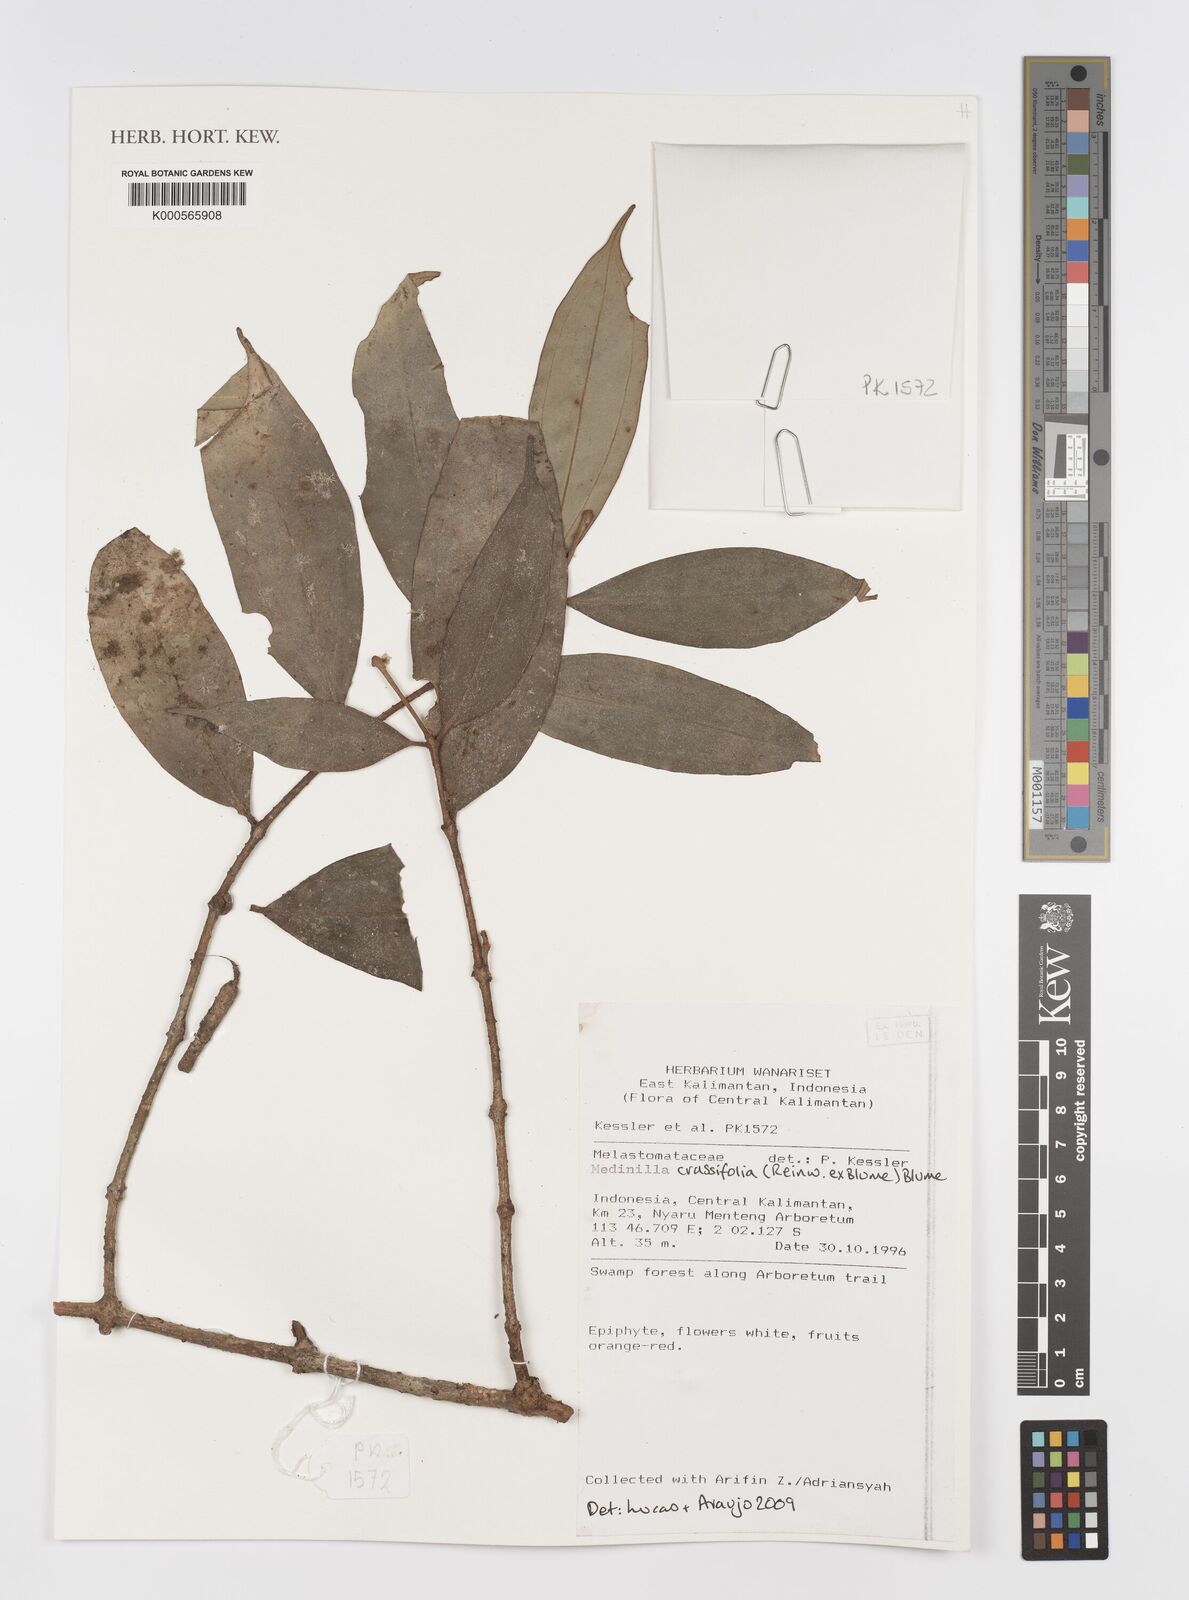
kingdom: Plantae
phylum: Tracheophyta
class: Magnoliopsida
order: Myrtales
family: Melastomataceae
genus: Medinilla
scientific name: Medinilla crassifolia
